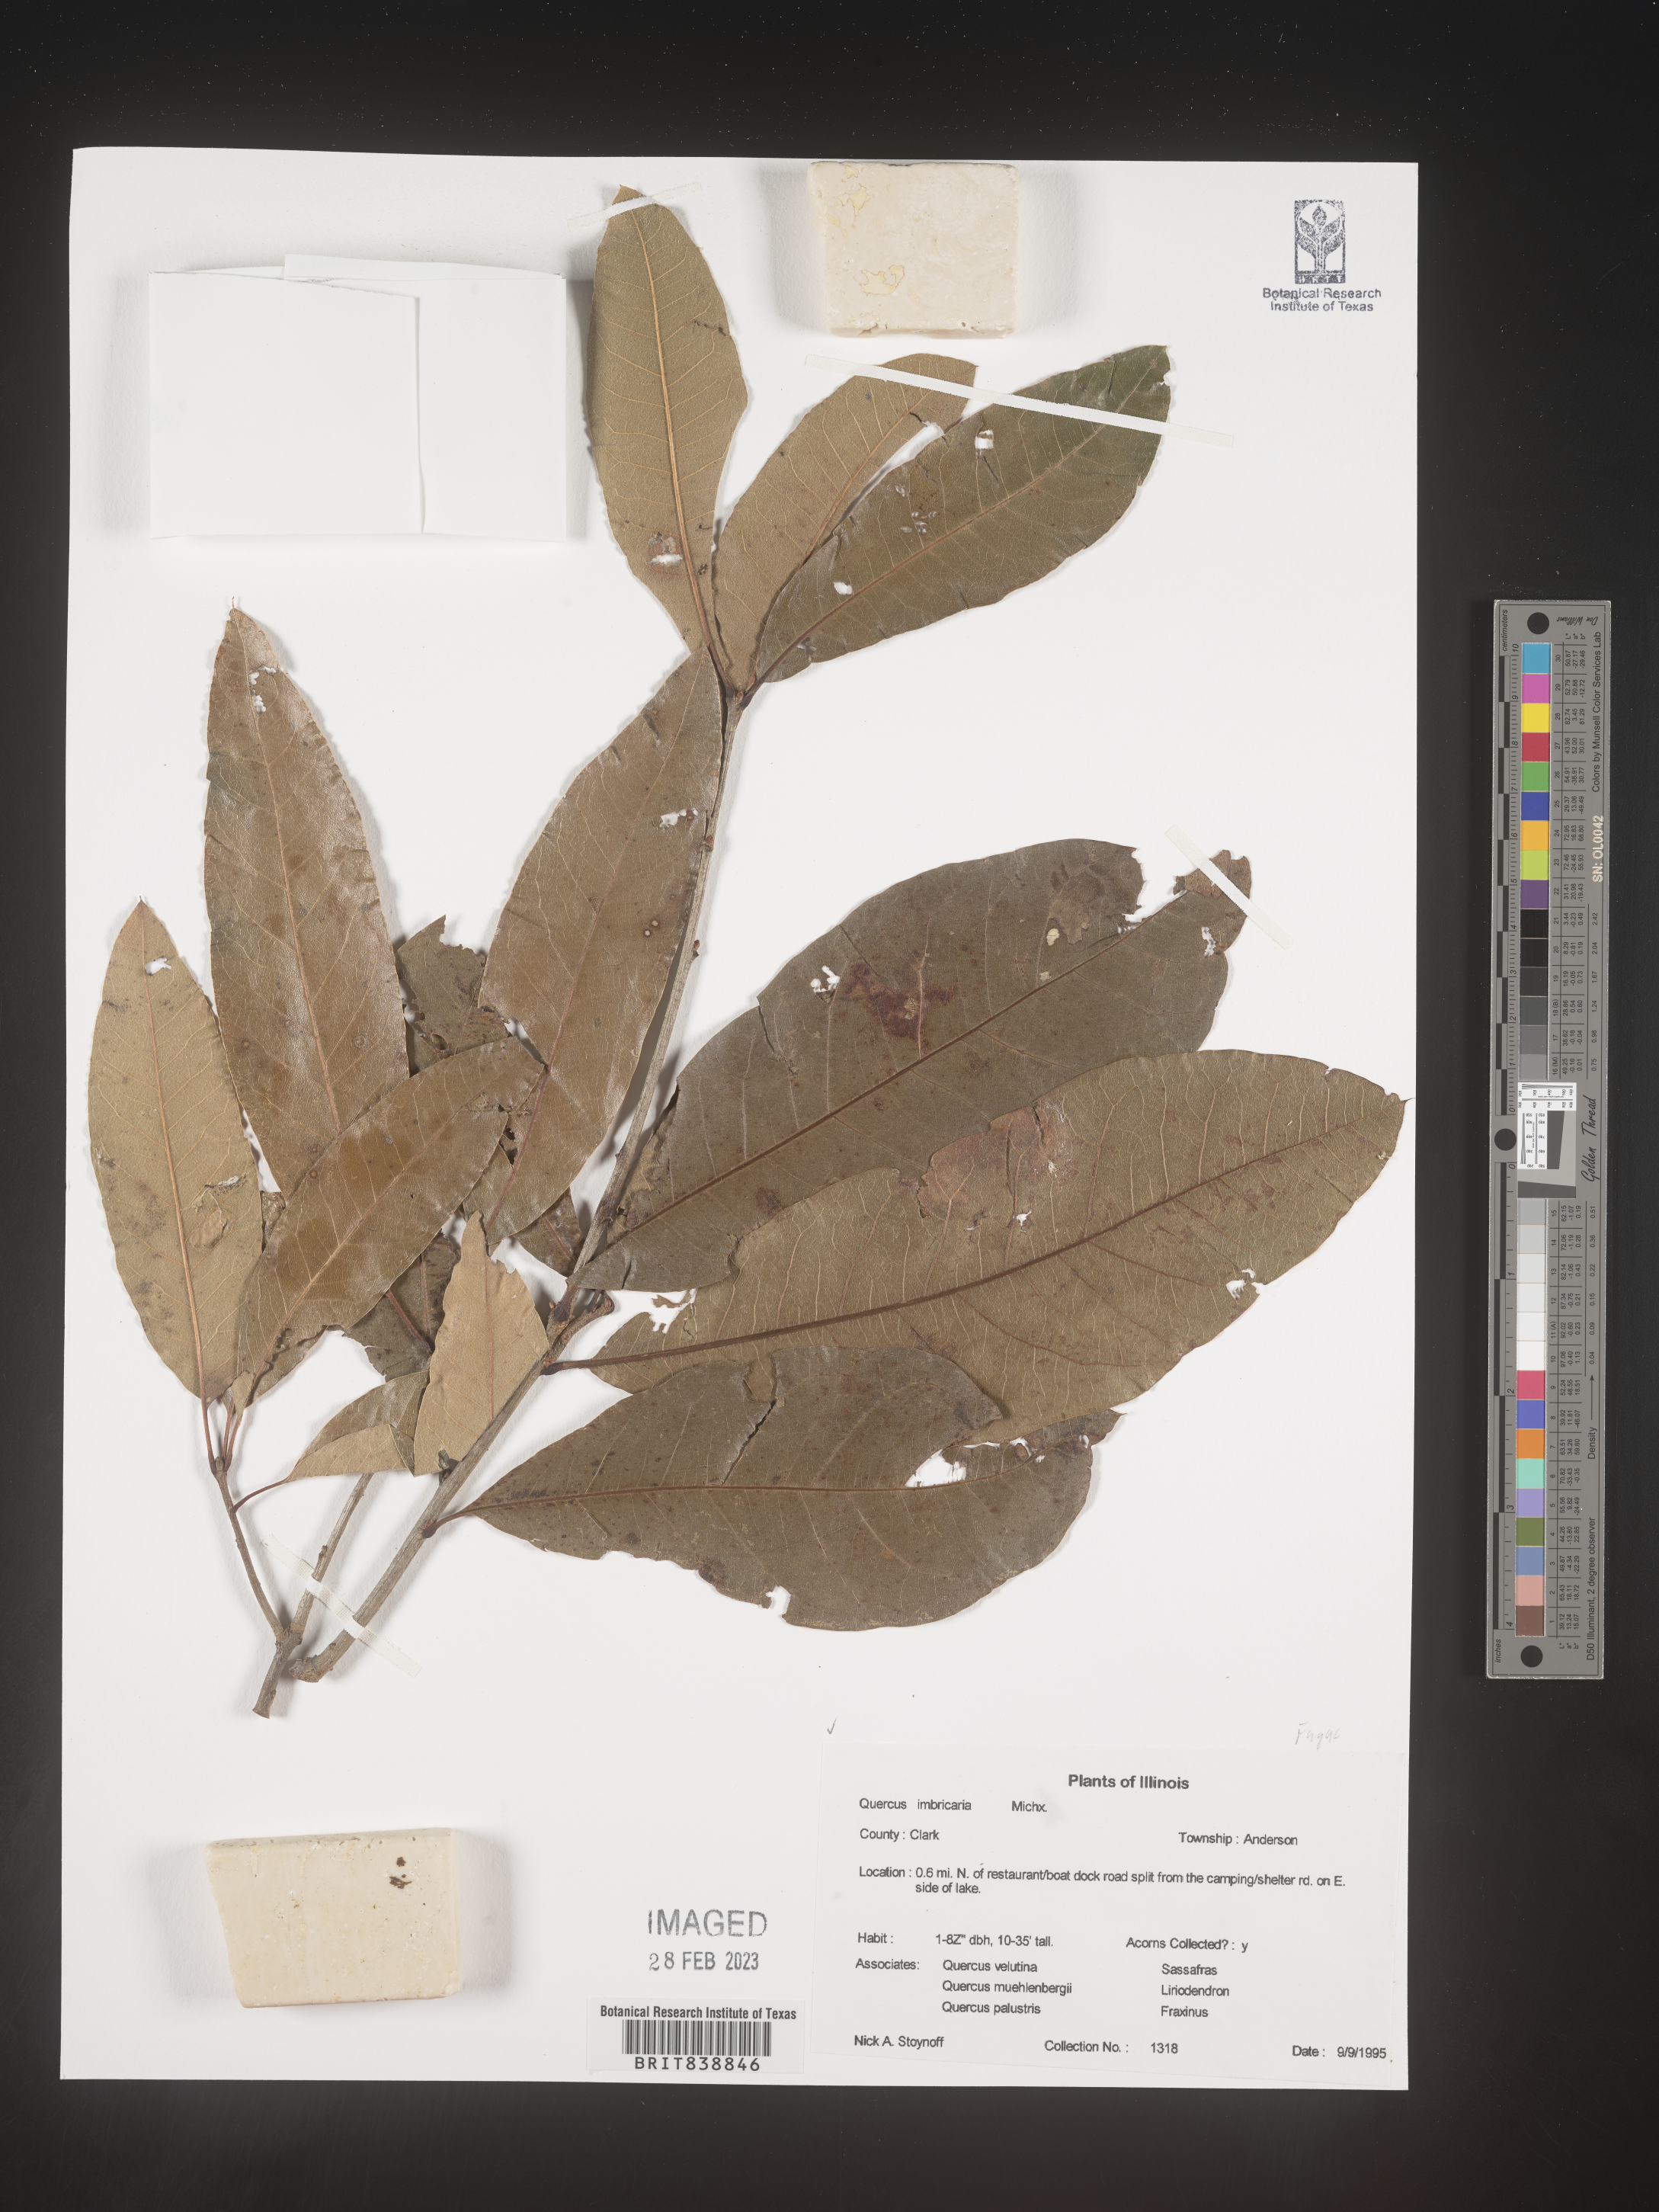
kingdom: Plantae
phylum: Tracheophyta
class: Magnoliopsida
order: Fagales
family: Fagaceae
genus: Quercus
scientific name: Quercus imbricaria
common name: Shingle oak
